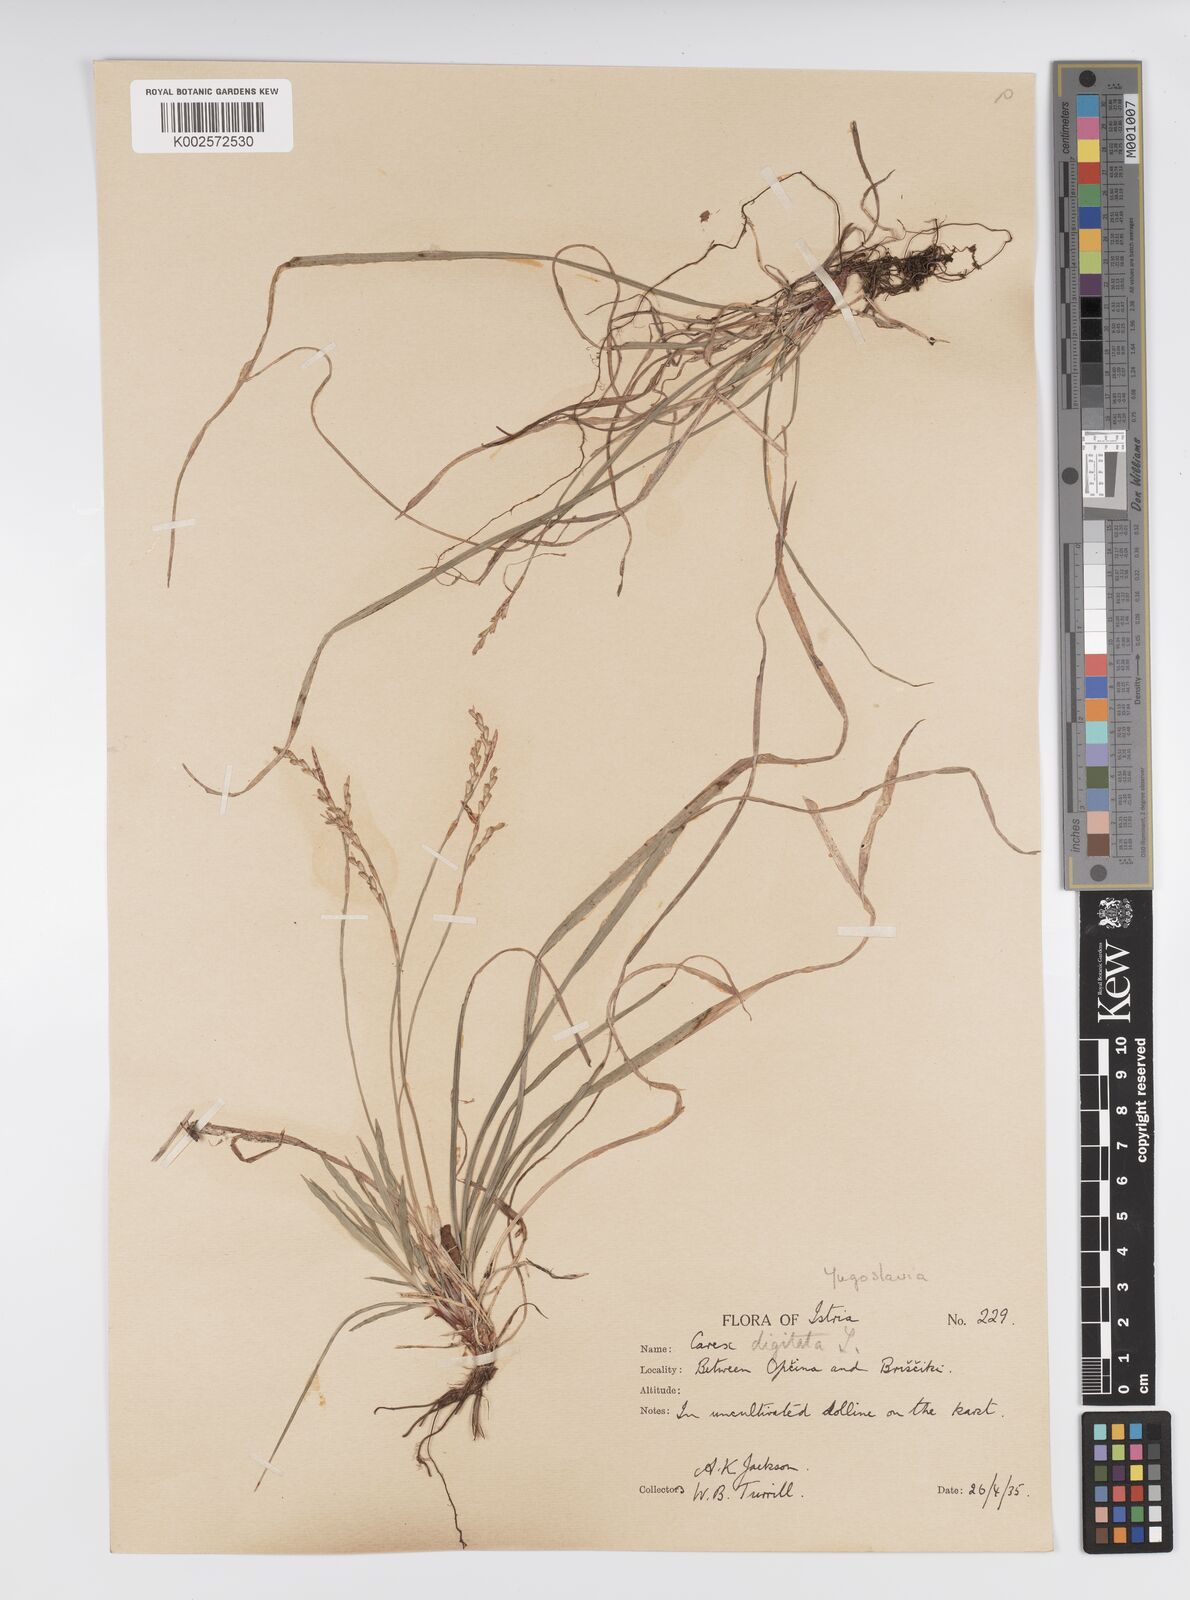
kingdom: Plantae
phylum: Tracheophyta
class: Liliopsida
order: Poales
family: Cyperaceae
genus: Carex
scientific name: Carex digitata
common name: Fingered sedge
